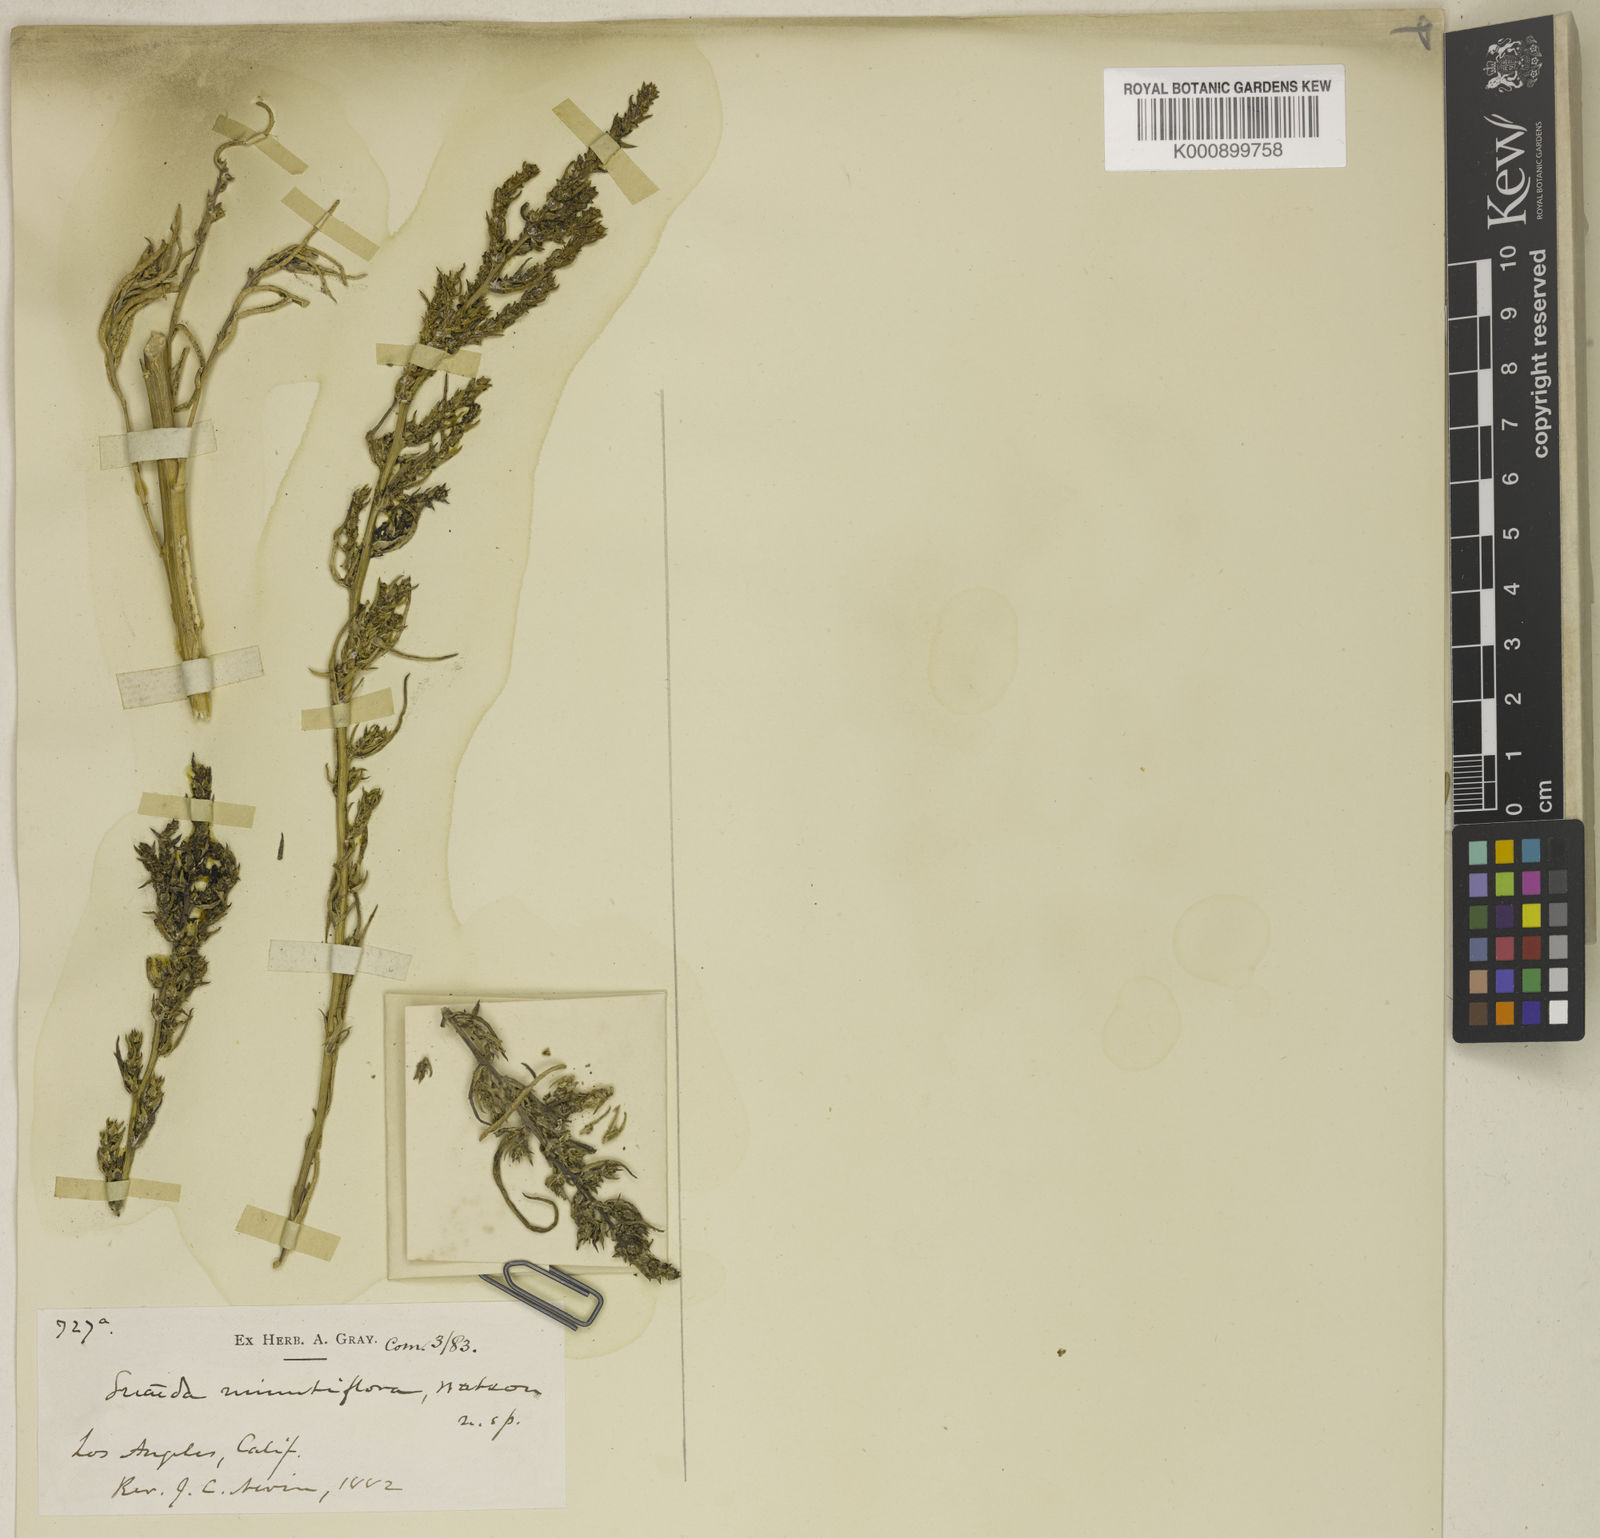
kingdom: Plantae
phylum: Tracheophyta
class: Magnoliopsida
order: Caryophyllales
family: Amaranthaceae
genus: Suaeda
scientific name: Suaeda calceoliformis
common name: Pursh's seepweed
